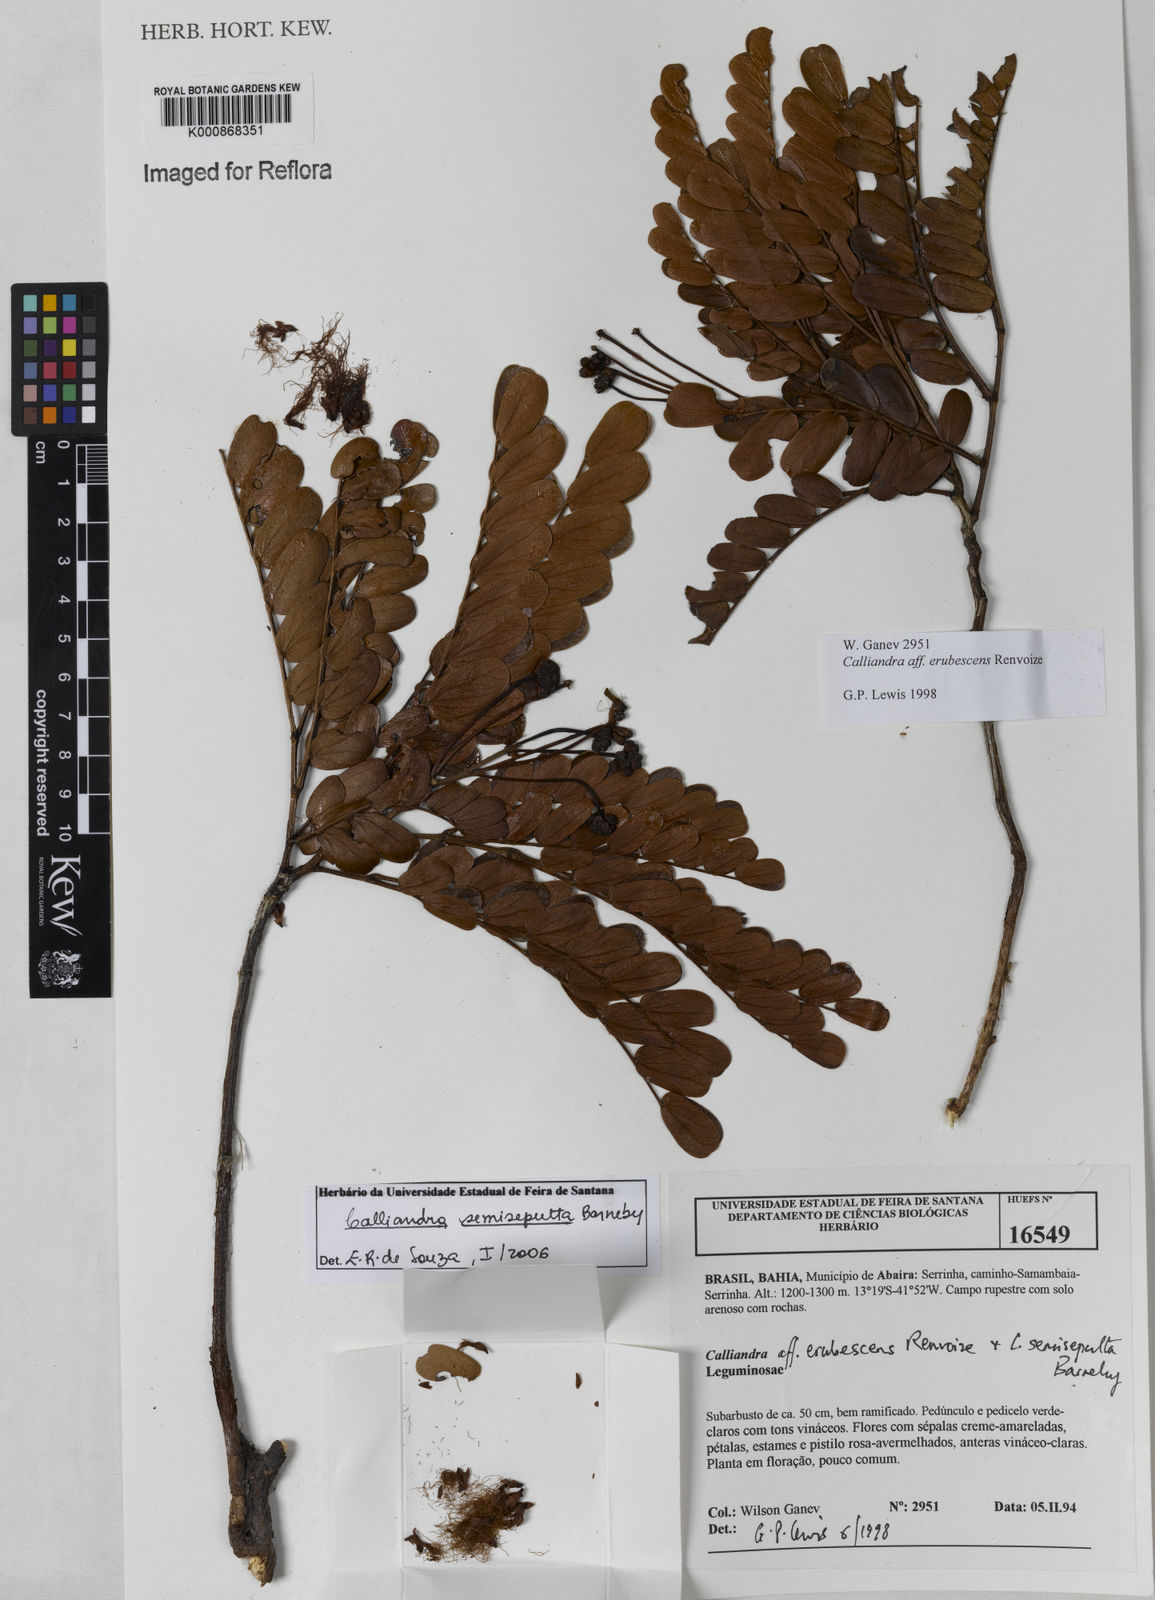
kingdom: Plantae
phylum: Tracheophyta
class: Magnoliopsida
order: Fabales
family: Fabaceae
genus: Calliandra
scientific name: Calliandra semisepulta
